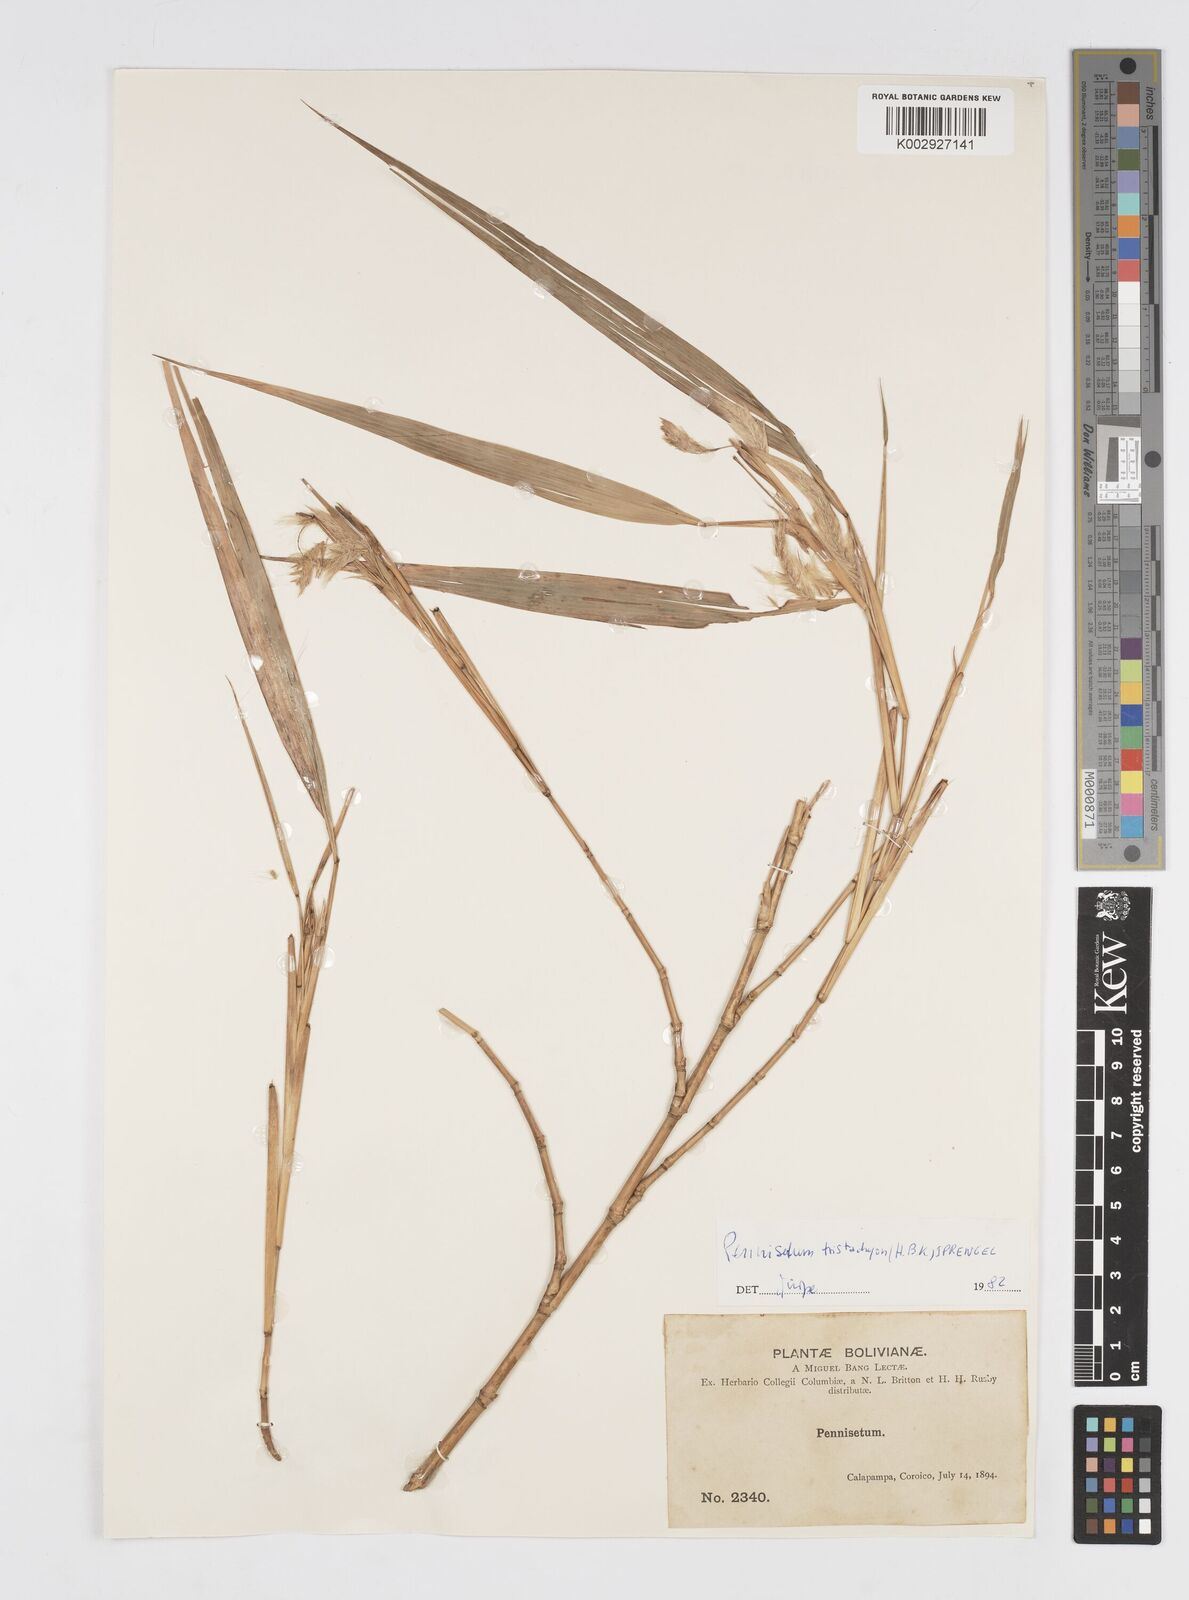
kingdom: Plantae
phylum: Tracheophyta
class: Liliopsida
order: Poales
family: Poaceae
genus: Cenchrus
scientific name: Cenchrus tristachyus
